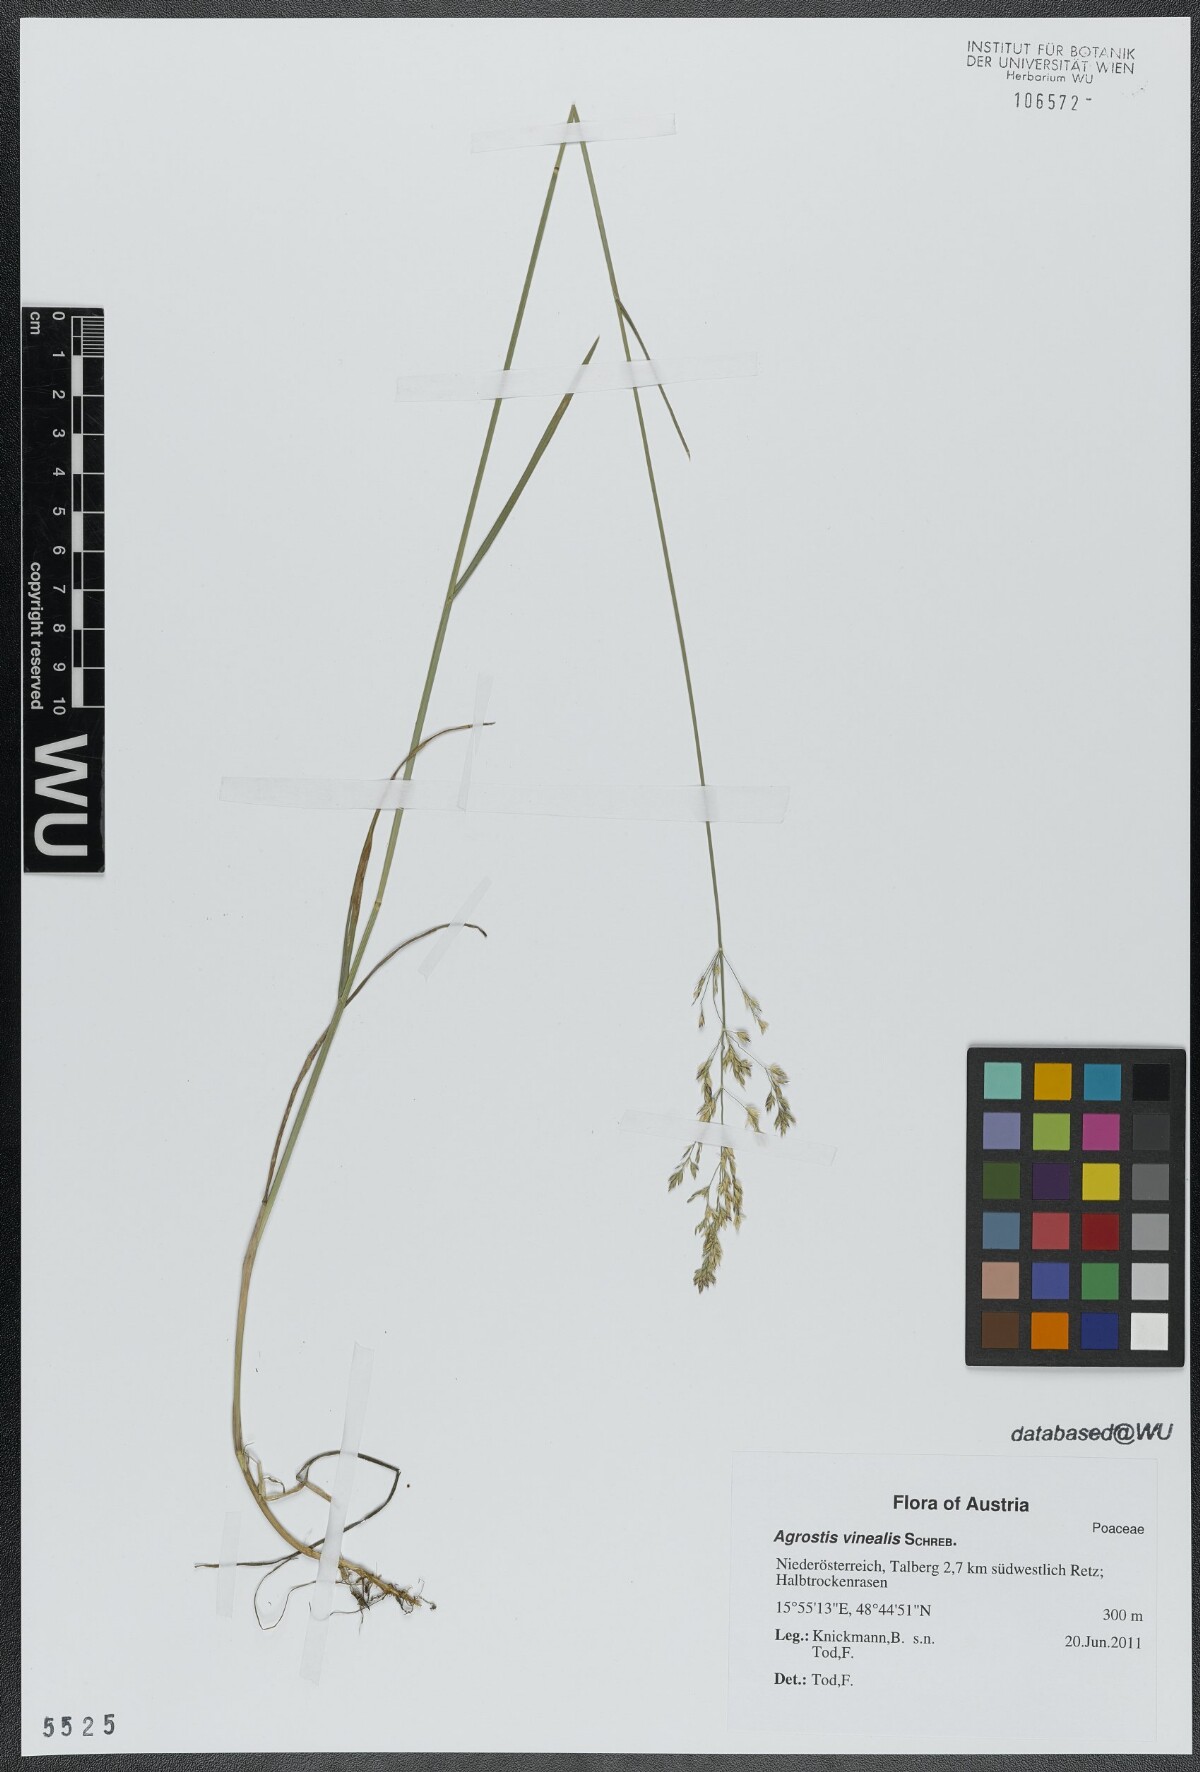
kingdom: Plantae
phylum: Tracheophyta
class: Liliopsida
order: Poales
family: Poaceae
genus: Poa
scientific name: Poa
